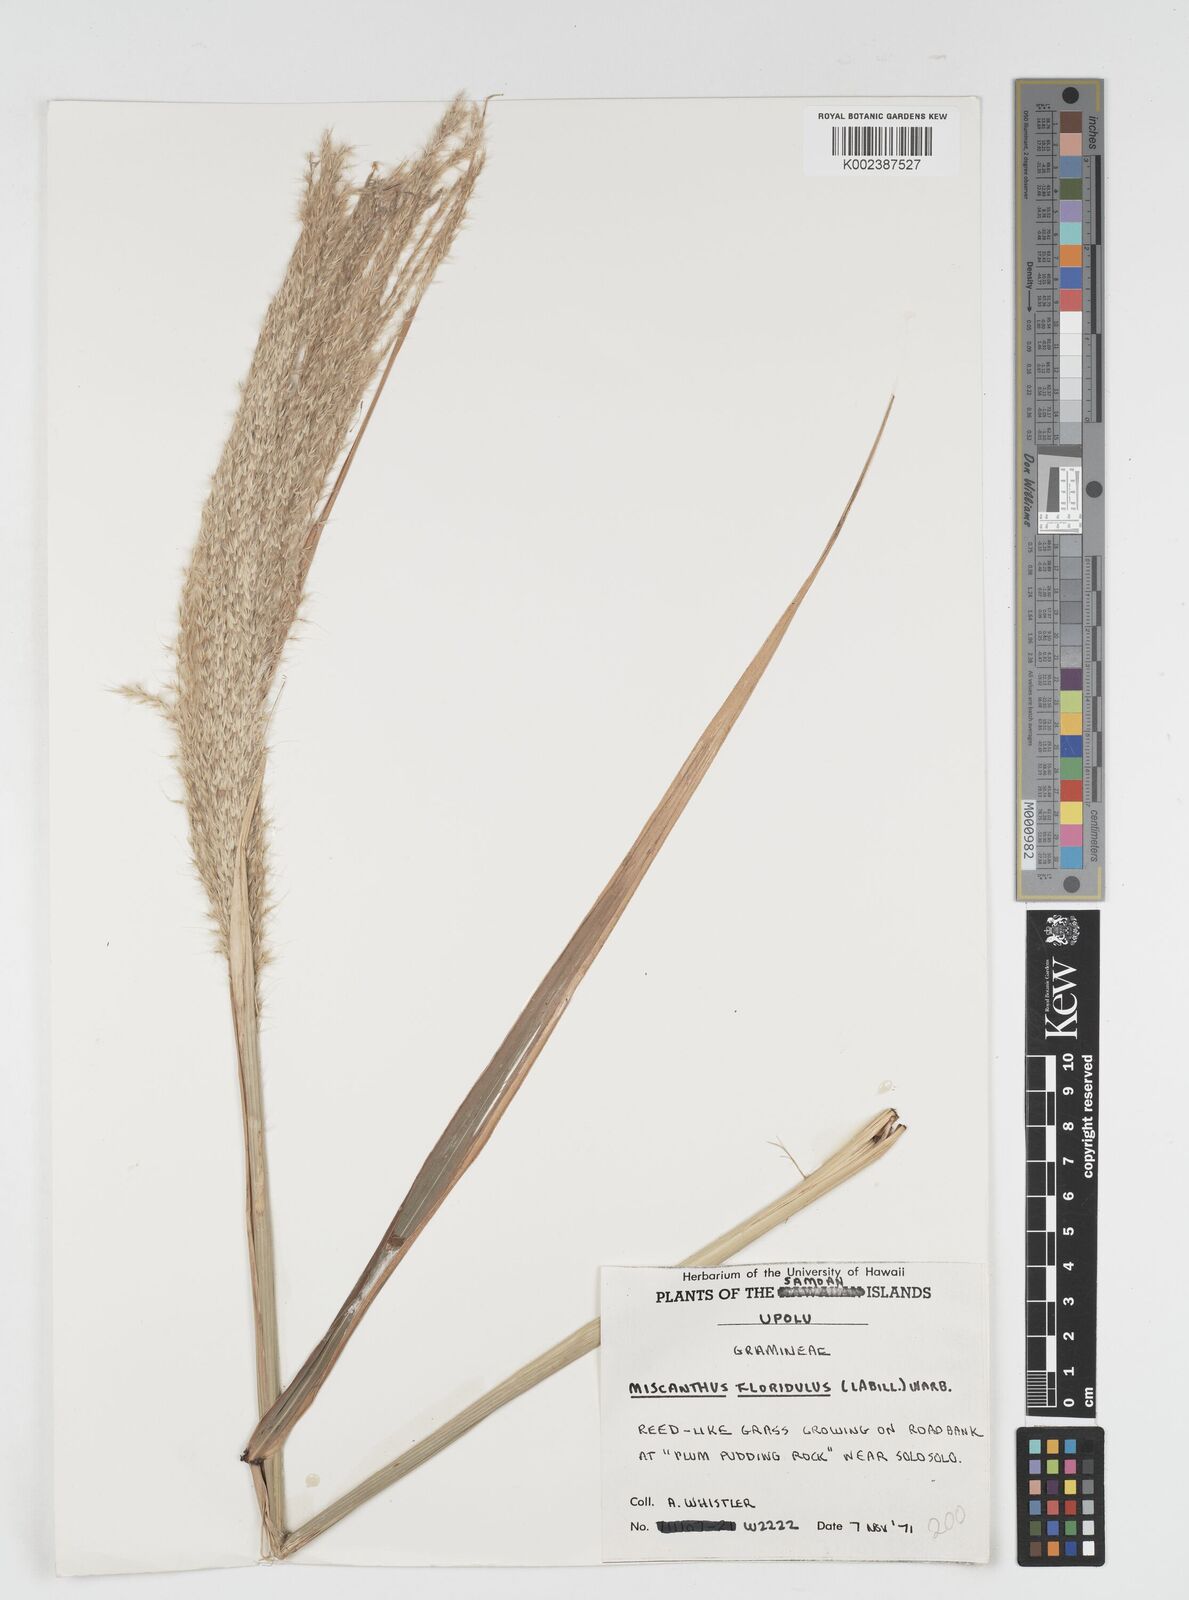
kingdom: Plantae
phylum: Tracheophyta
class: Liliopsida
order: Poales
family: Poaceae
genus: Miscanthus
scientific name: Miscanthus floridulus
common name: Pacific island silvergrass
